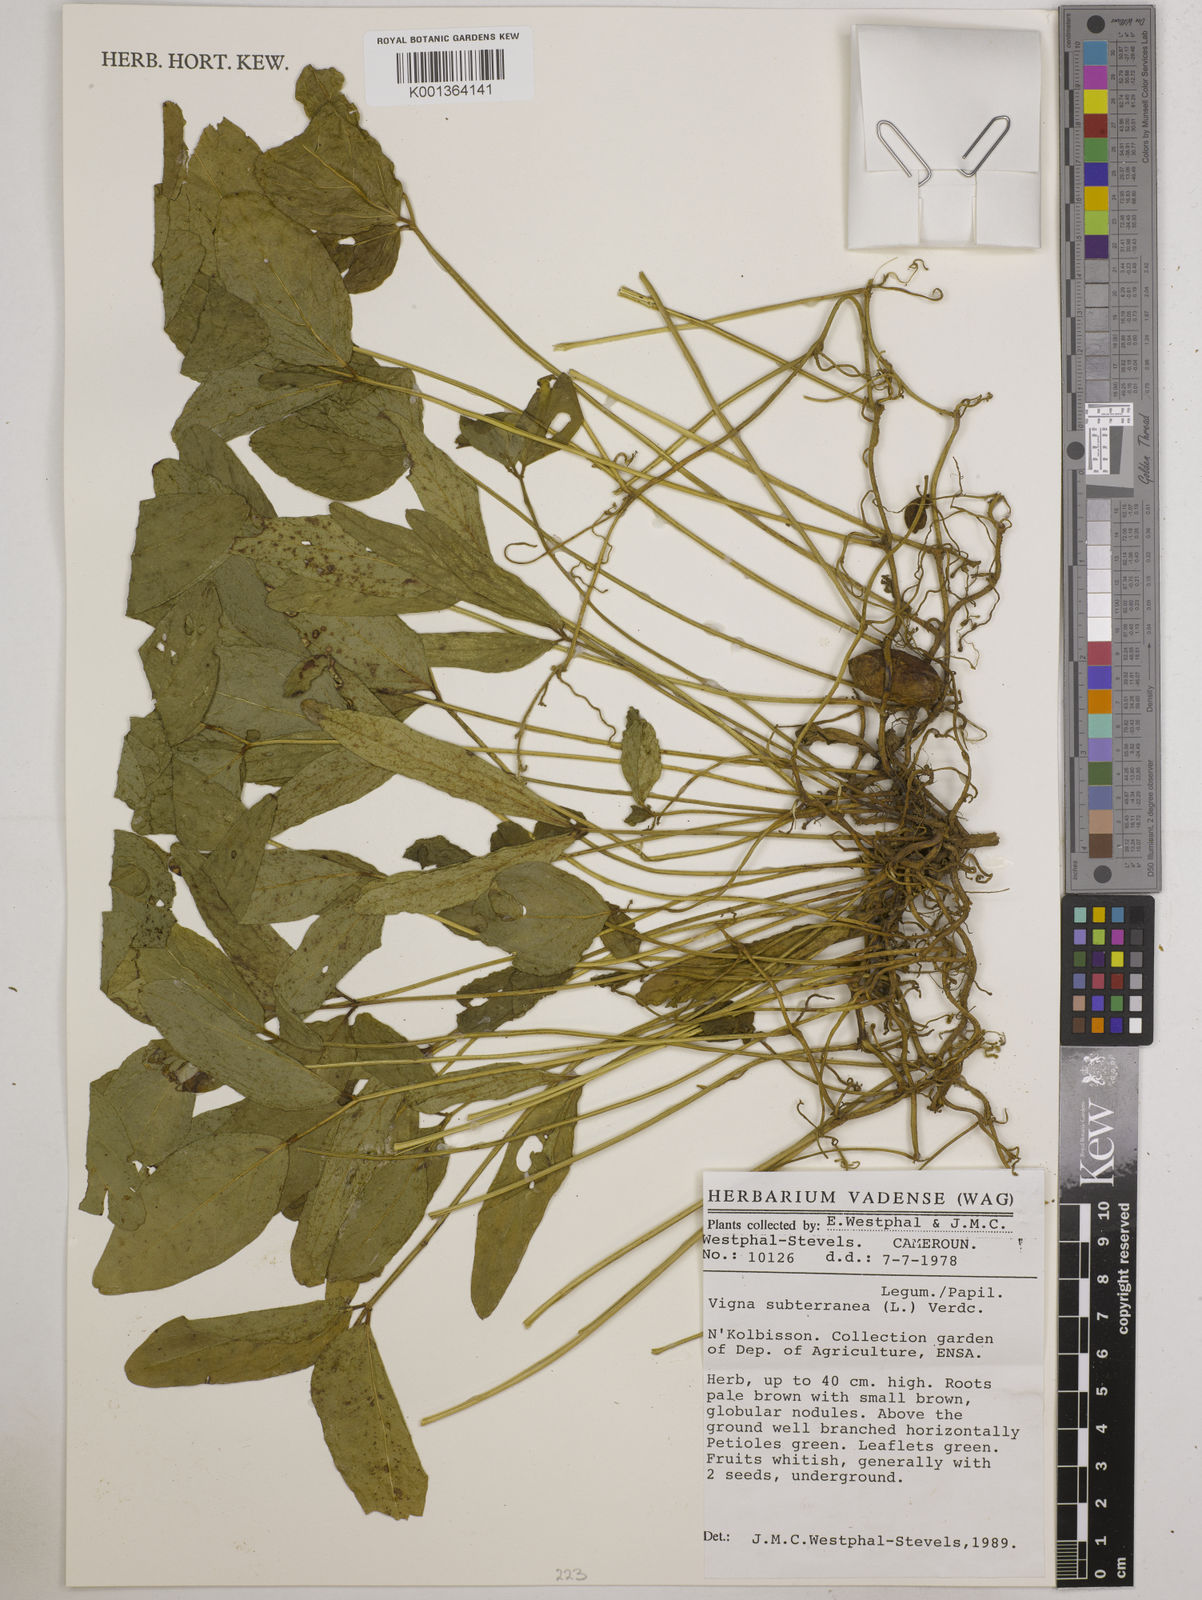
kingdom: Plantae
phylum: Tracheophyta
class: Magnoliopsida
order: Fabales
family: Fabaceae
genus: Vigna
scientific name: Vigna subterranea
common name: Bambara groundnut
